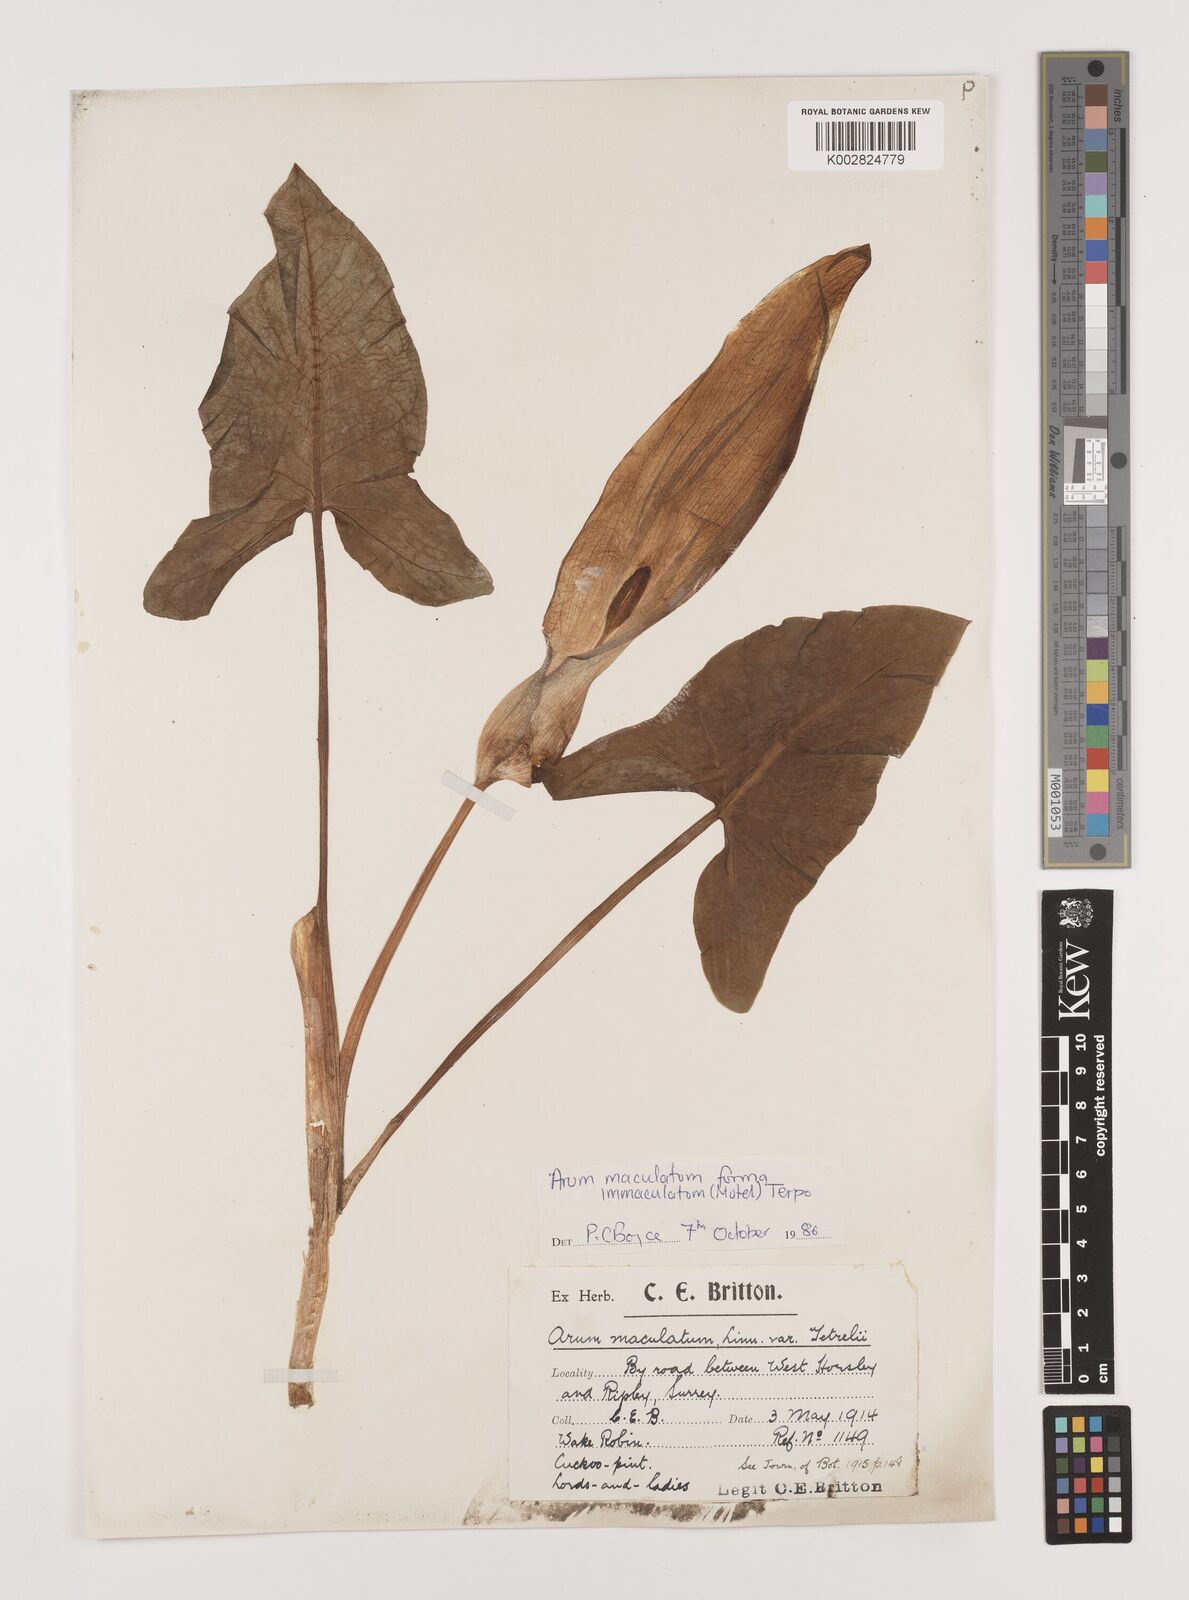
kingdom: Plantae
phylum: Tracheophyta
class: Liliopsida
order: Alismatales
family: Araceae
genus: Arum
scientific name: Arum maculatum
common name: Lords-and-ladies
